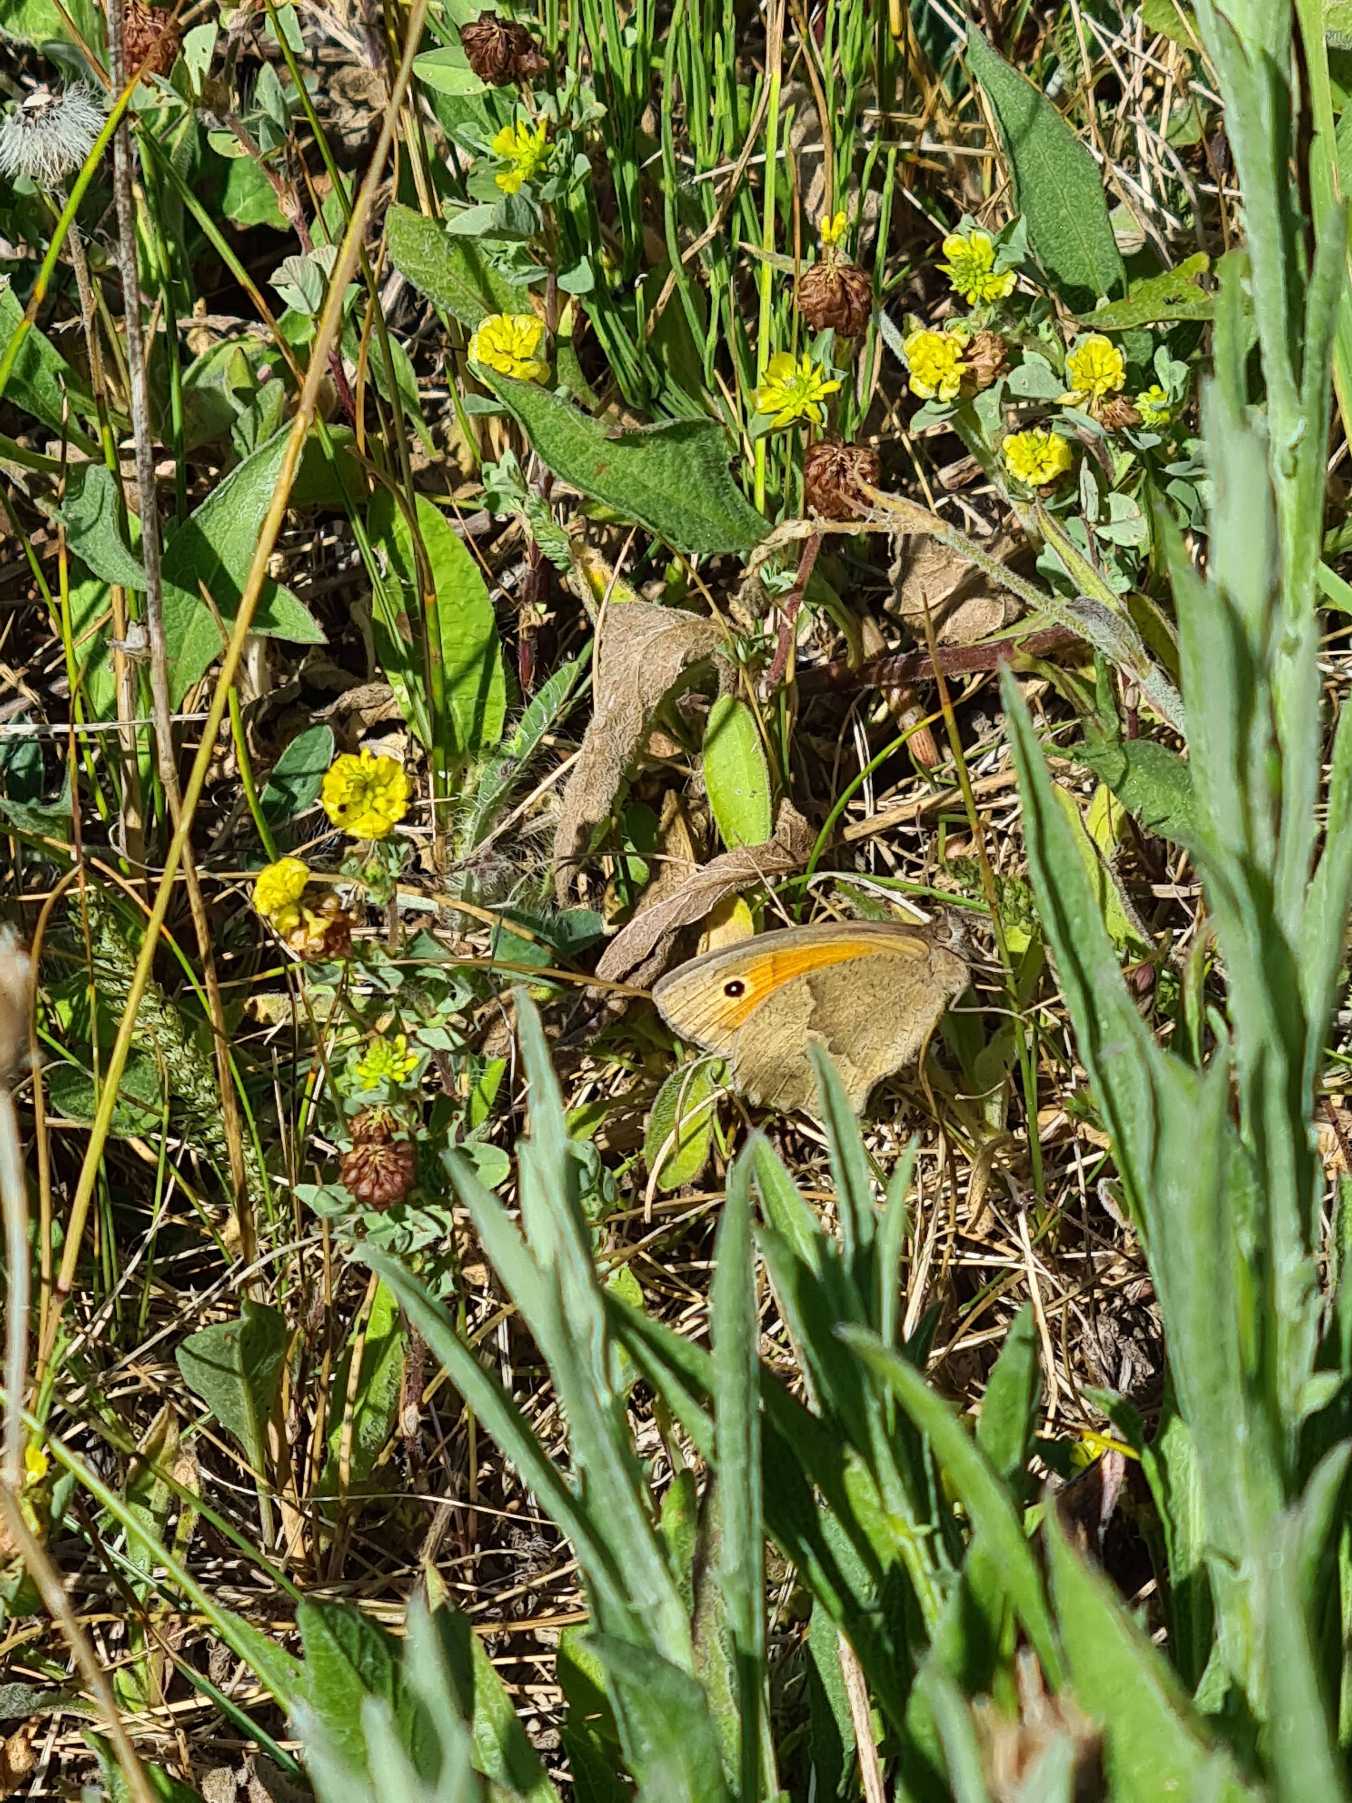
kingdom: Animalia
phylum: Arthropoda
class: Insecta
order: Lepidoptera
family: Nymphalidae
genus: Maniola
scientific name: Maniola jurtina
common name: Græsrandøje
